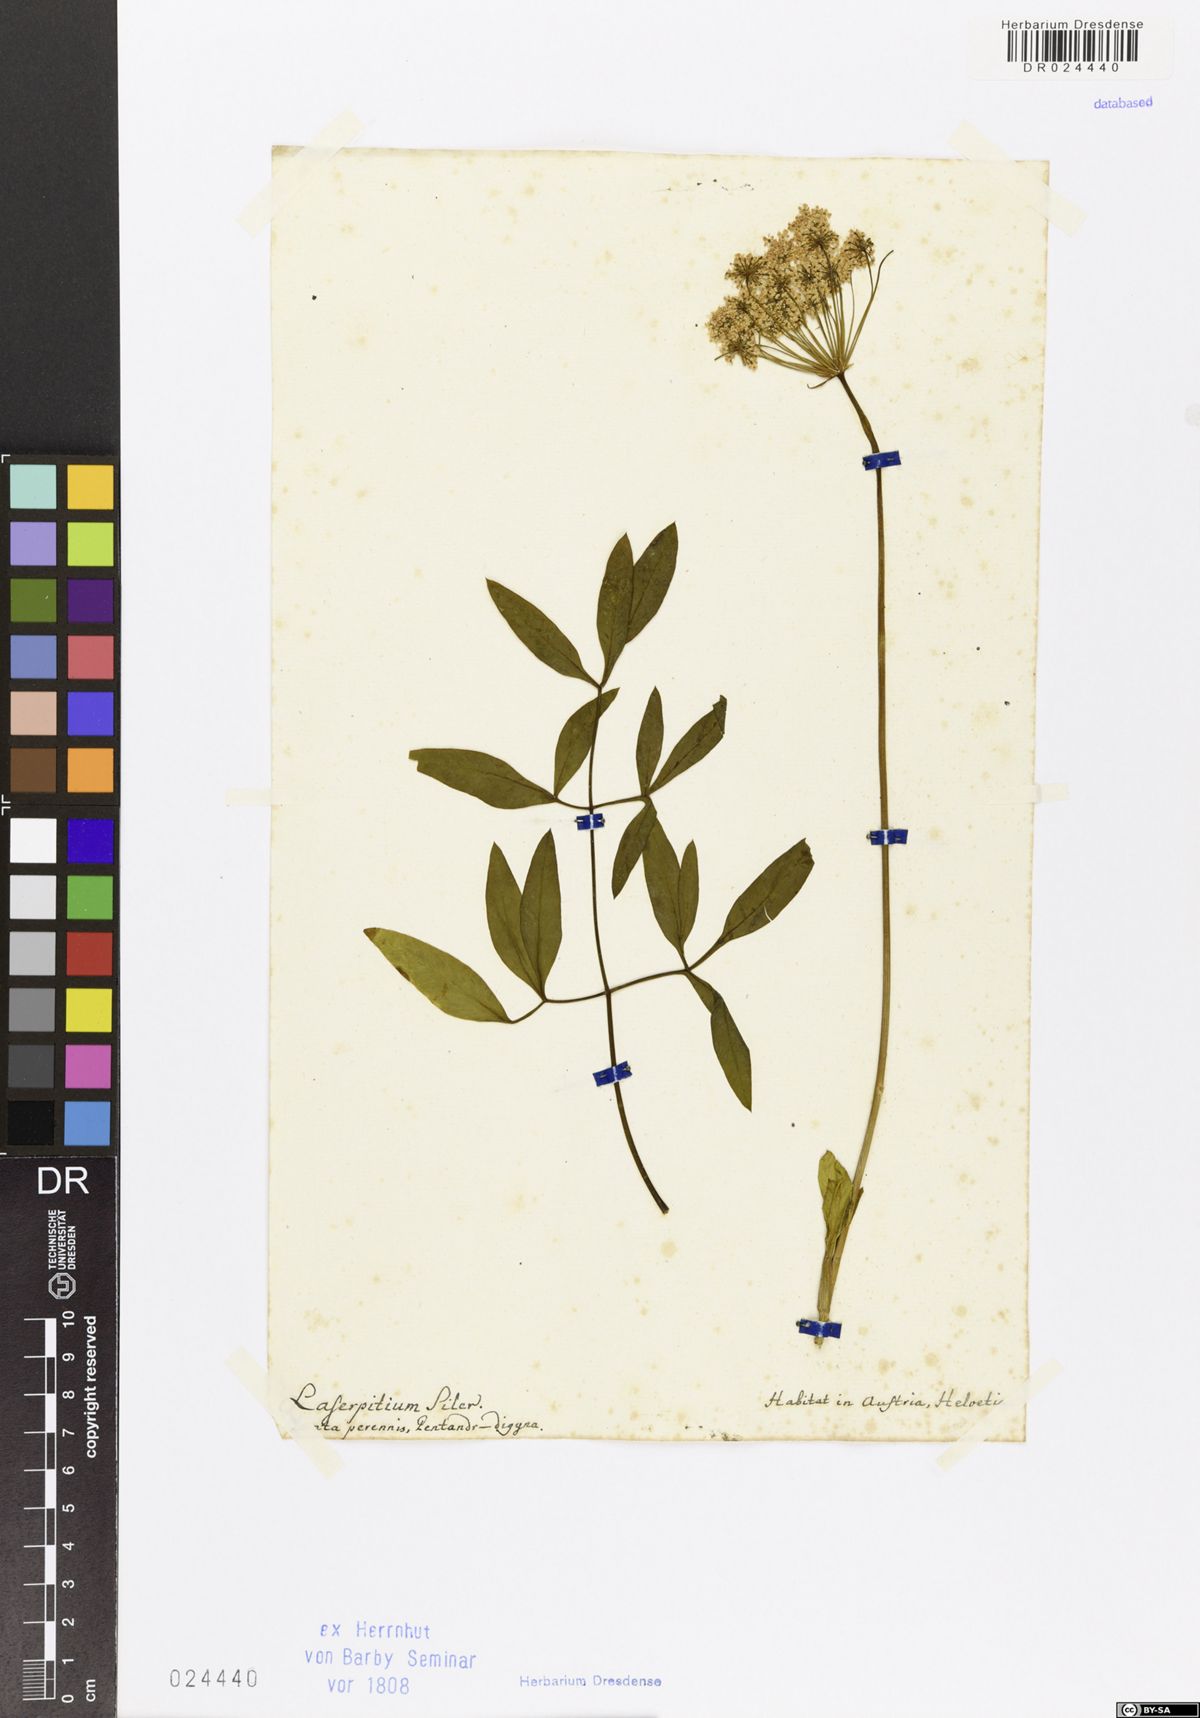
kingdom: Plantae
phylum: Tracheophyta
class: Magnoliopsida
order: Apiales
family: Apiaceae
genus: Siler
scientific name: Siler montanum
